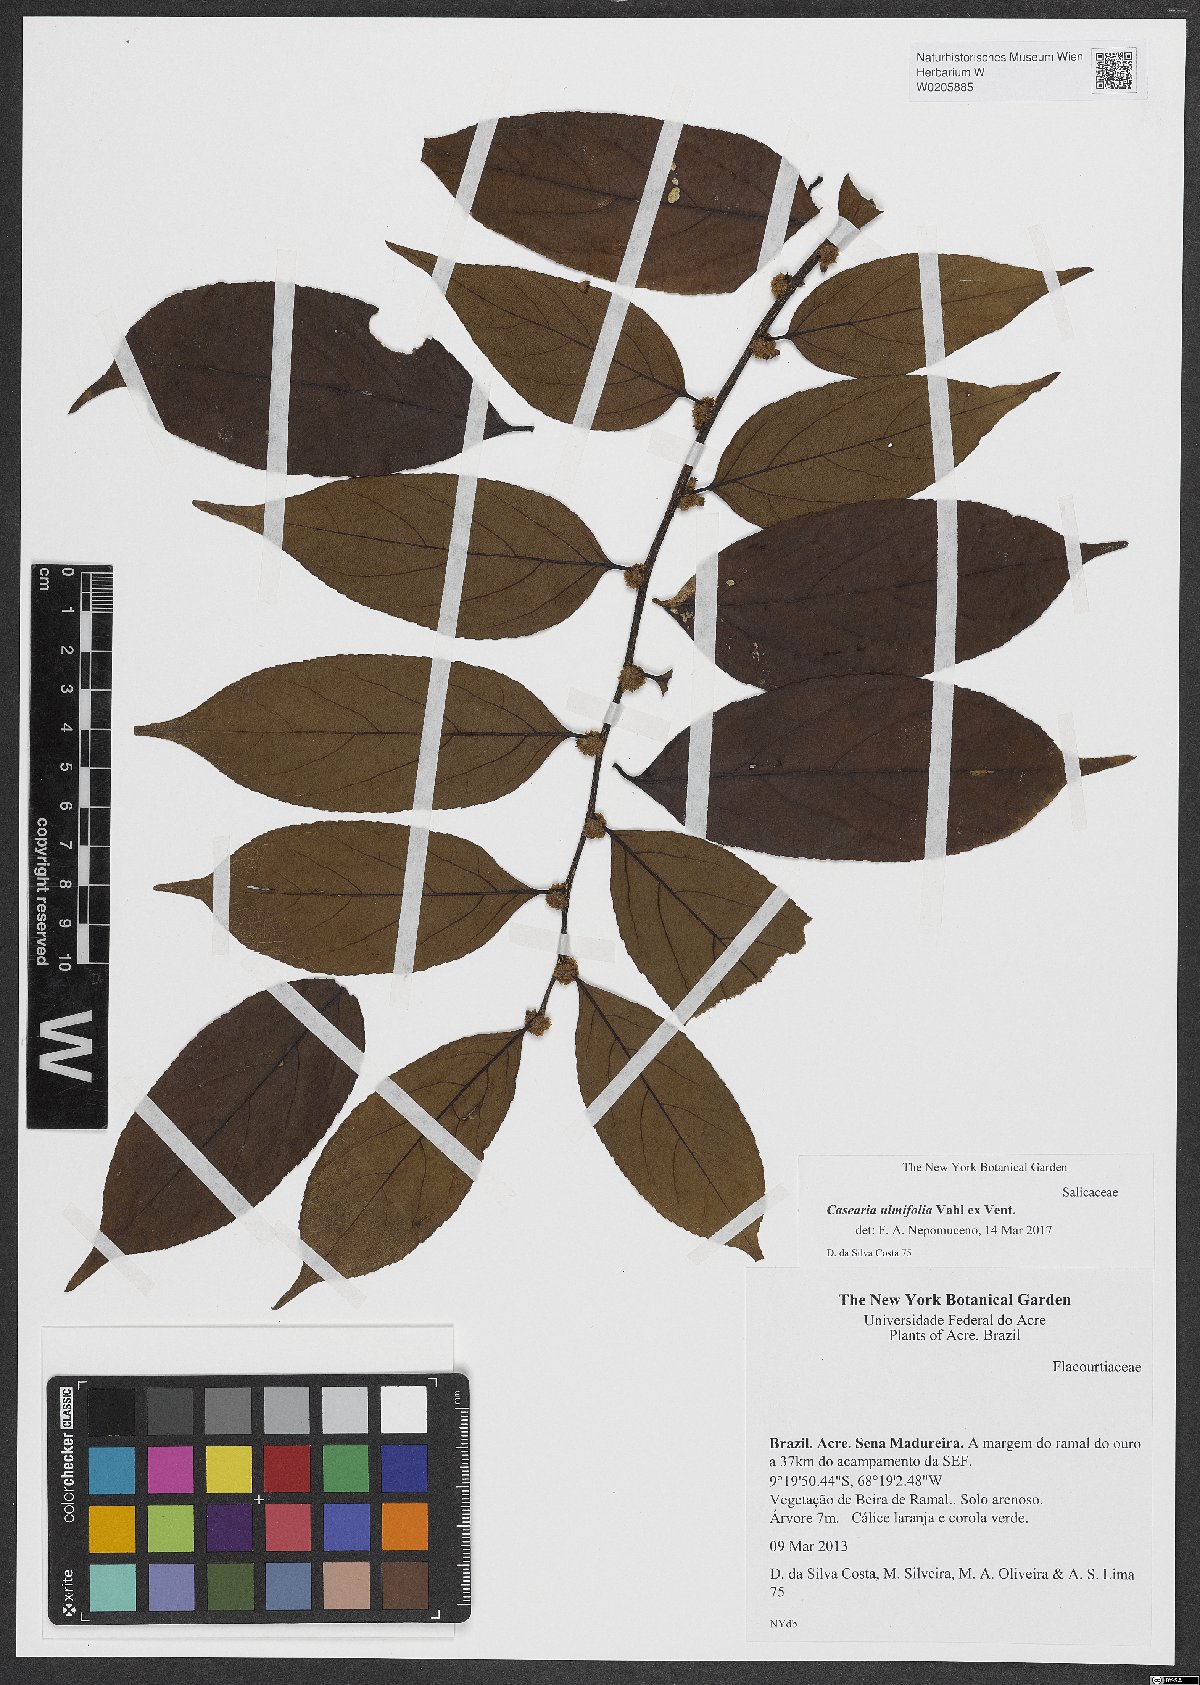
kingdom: Plantae
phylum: Tracheophyta
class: Magnoliopsida
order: Malpighiales
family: Salicaceae
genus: Casearia
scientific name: Casearia ulmifolia
